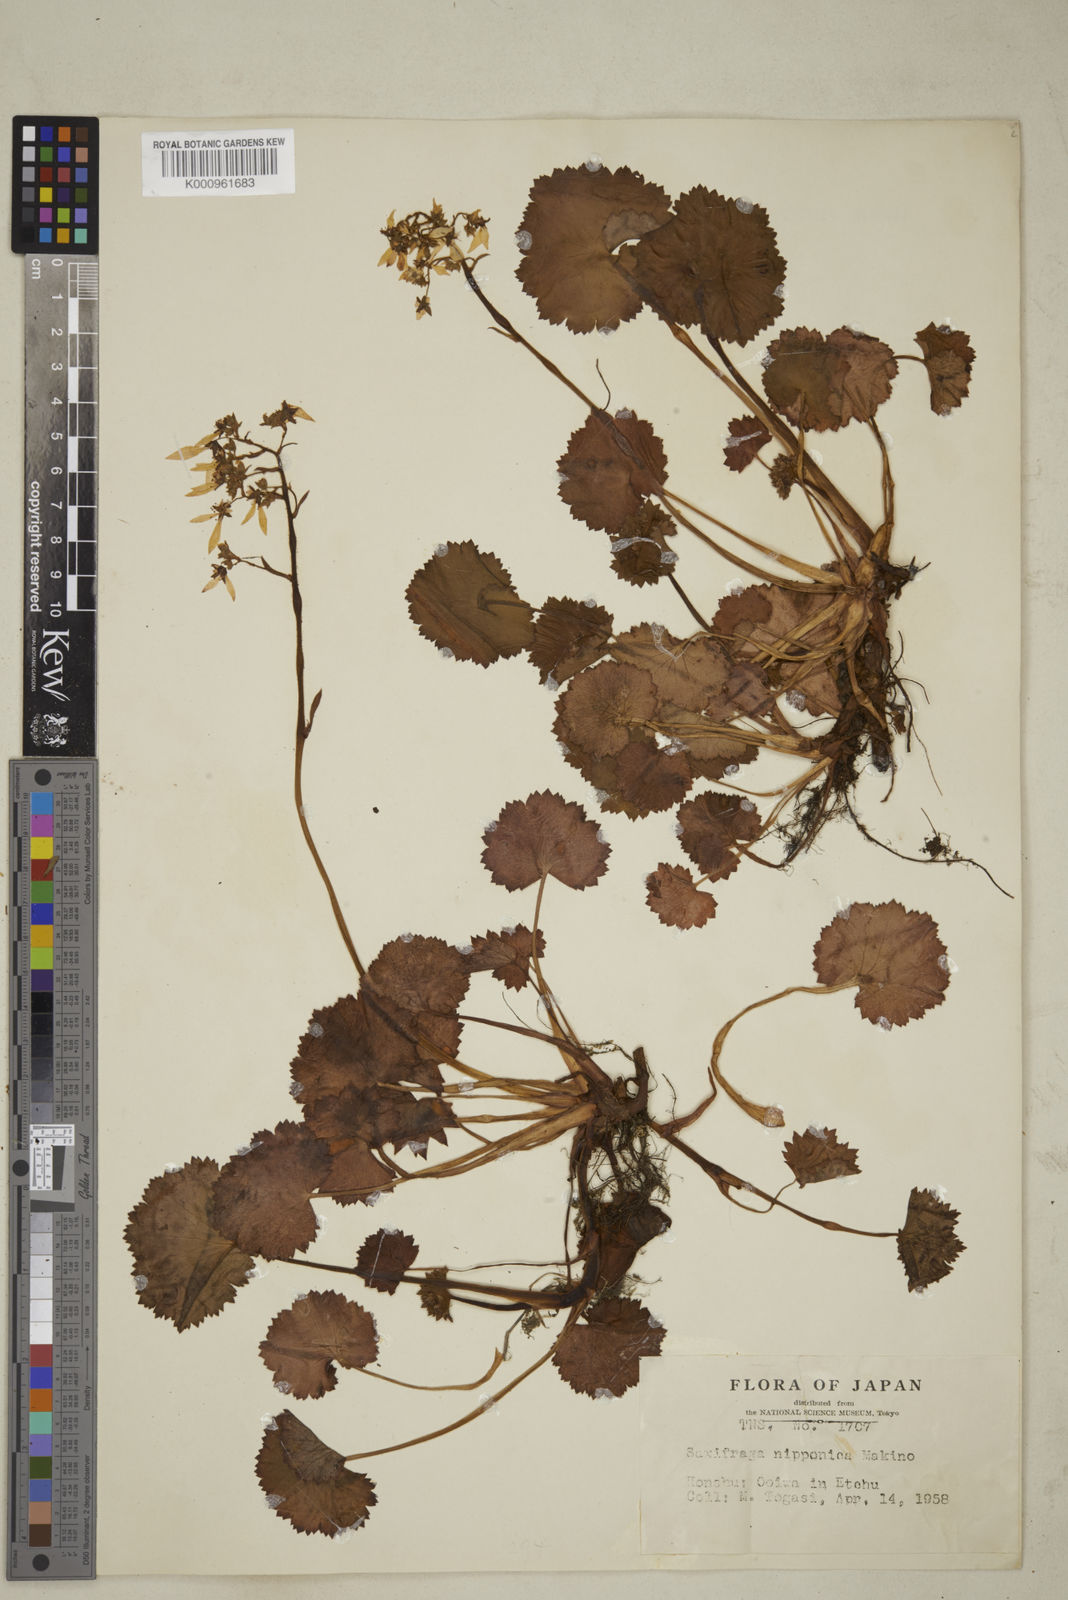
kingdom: Plantae
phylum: Tracheophyta
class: Magnoliopsida
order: Saxifragales
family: Saxifragaceae
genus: Saxifraga
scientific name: Saxifraga nipponica
